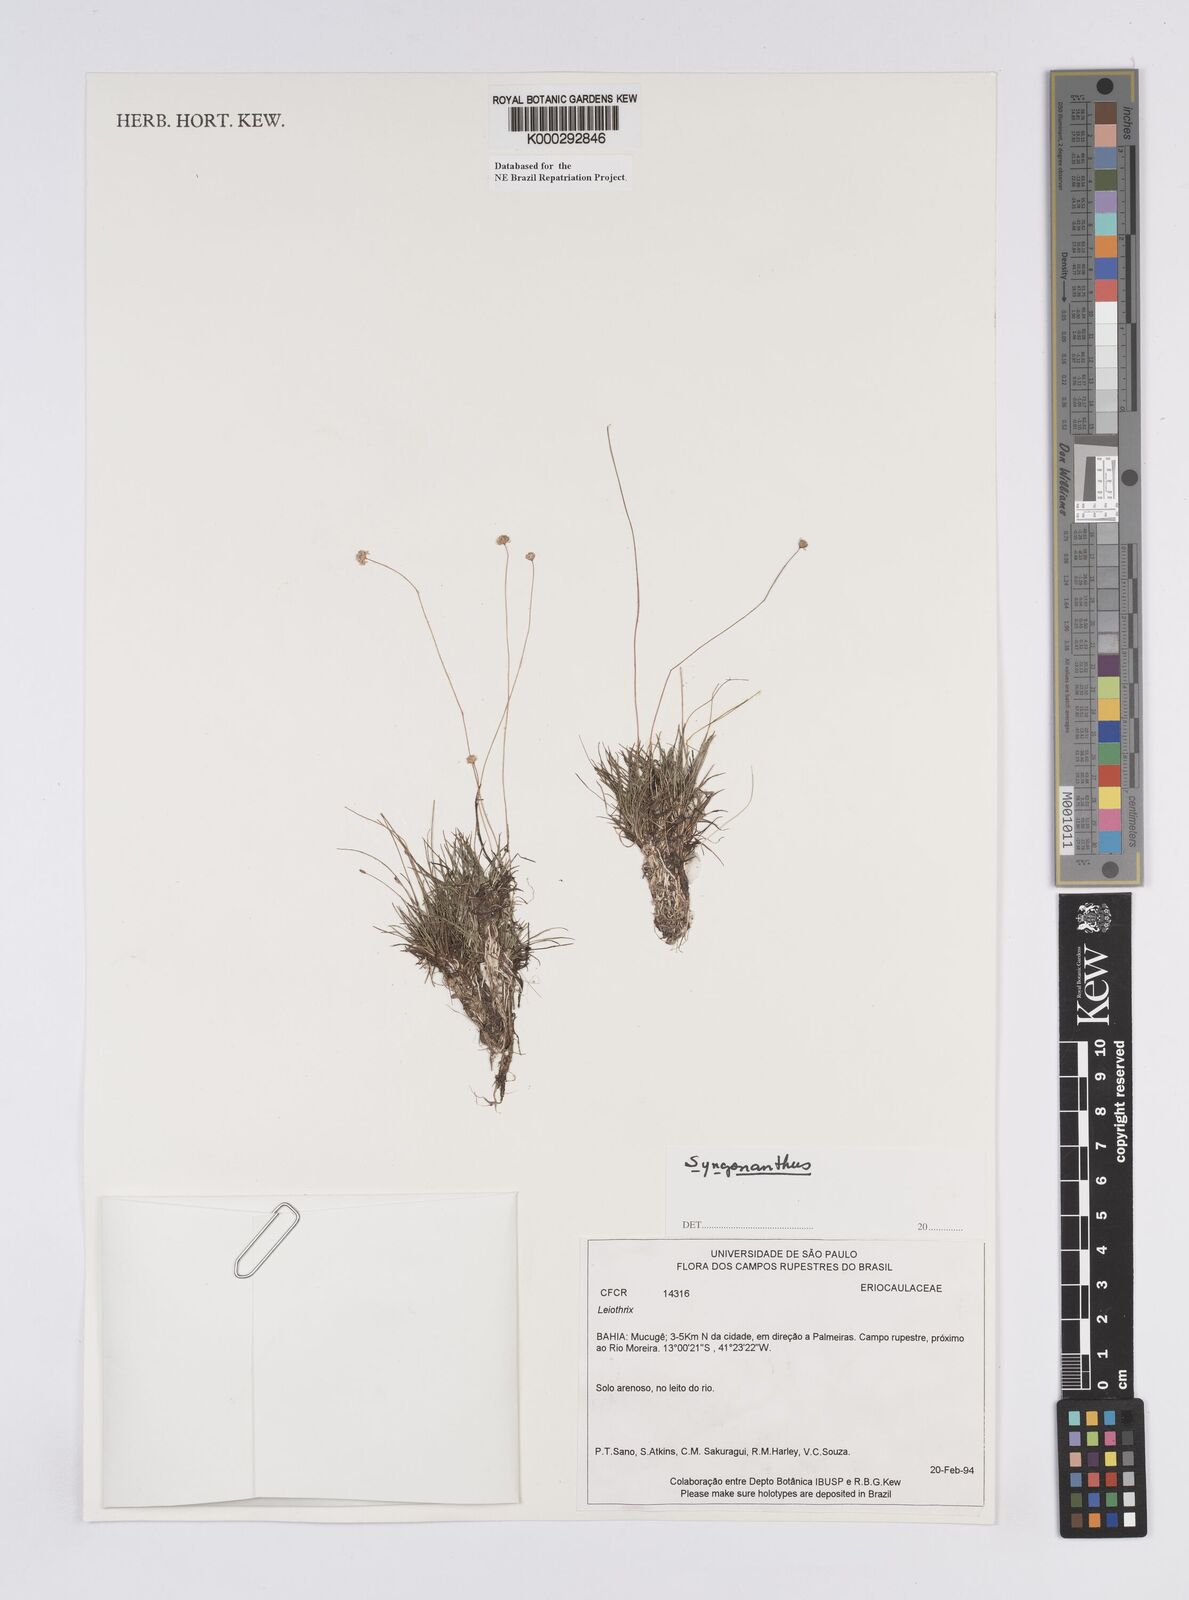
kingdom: Plantae
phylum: Tracheophyta
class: Liliopsida
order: Poales
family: Eriocaulaceae
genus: Syngonanthus
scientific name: Syngonanthus
